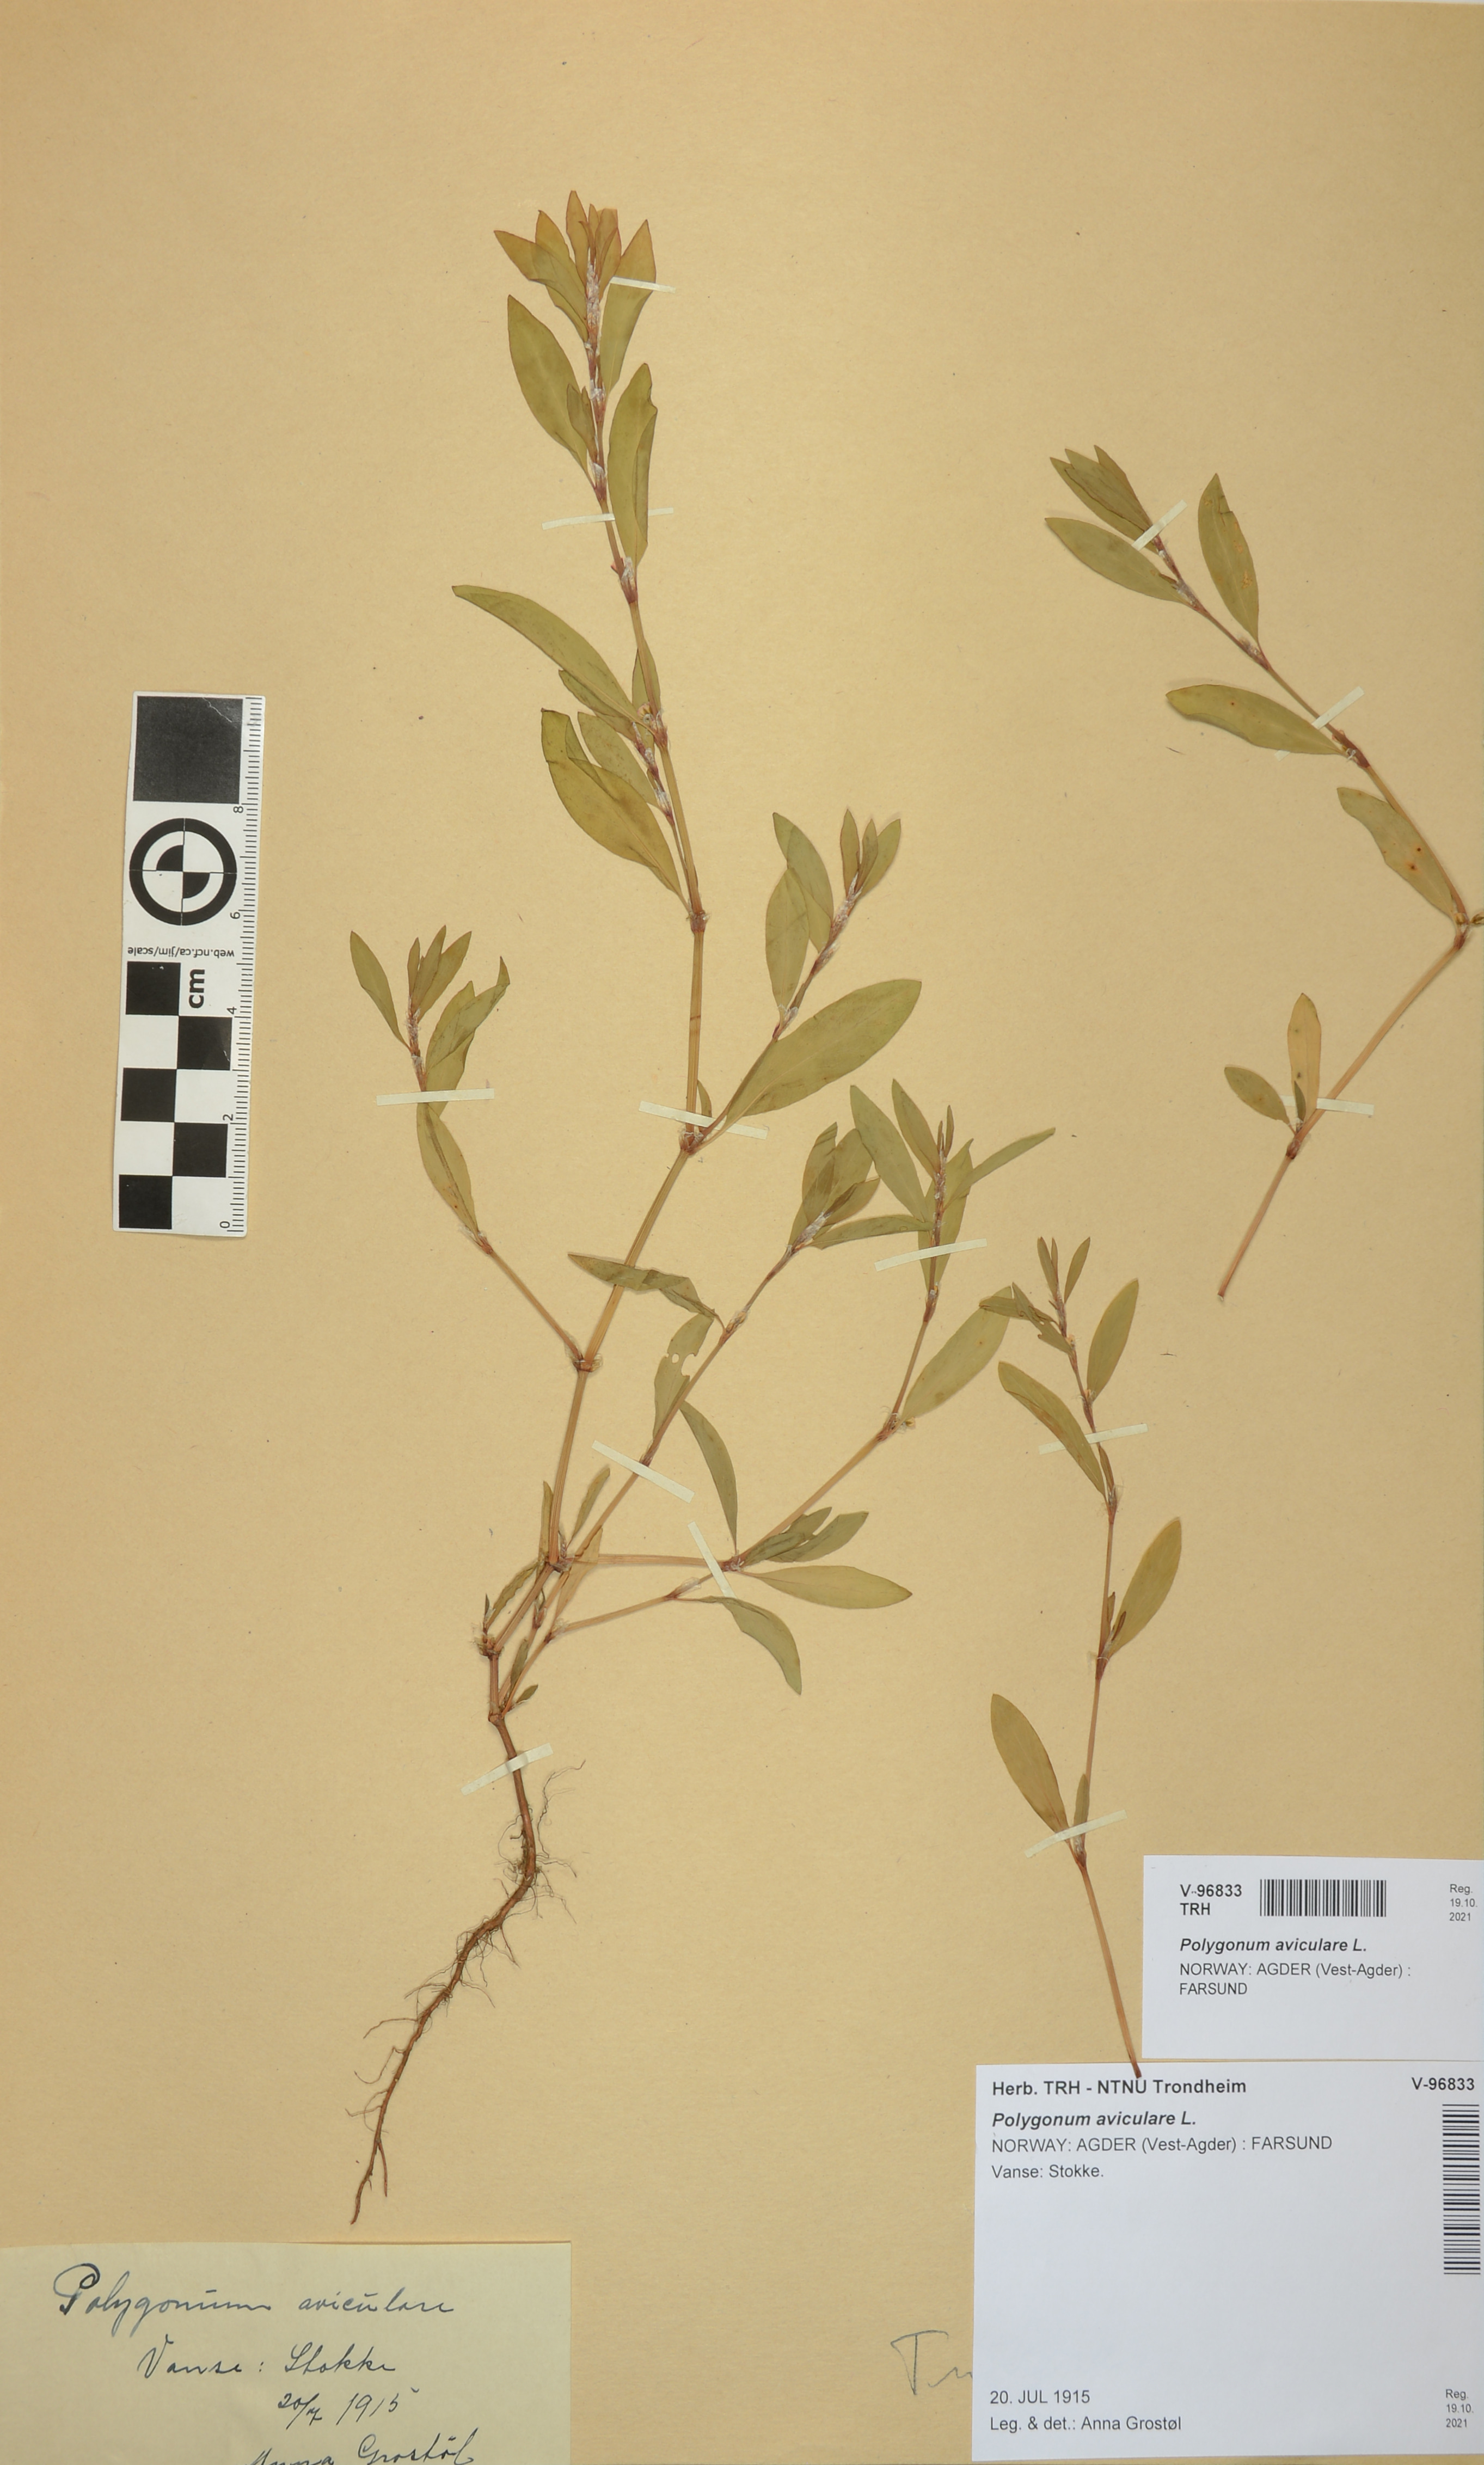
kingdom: Plantae
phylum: Tracheophyta
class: Magnoliopsida
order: Caryophyllales
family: Polygonaceae
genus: Polygonum
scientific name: Polygonum aviculare
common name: Prostrate knotweed
